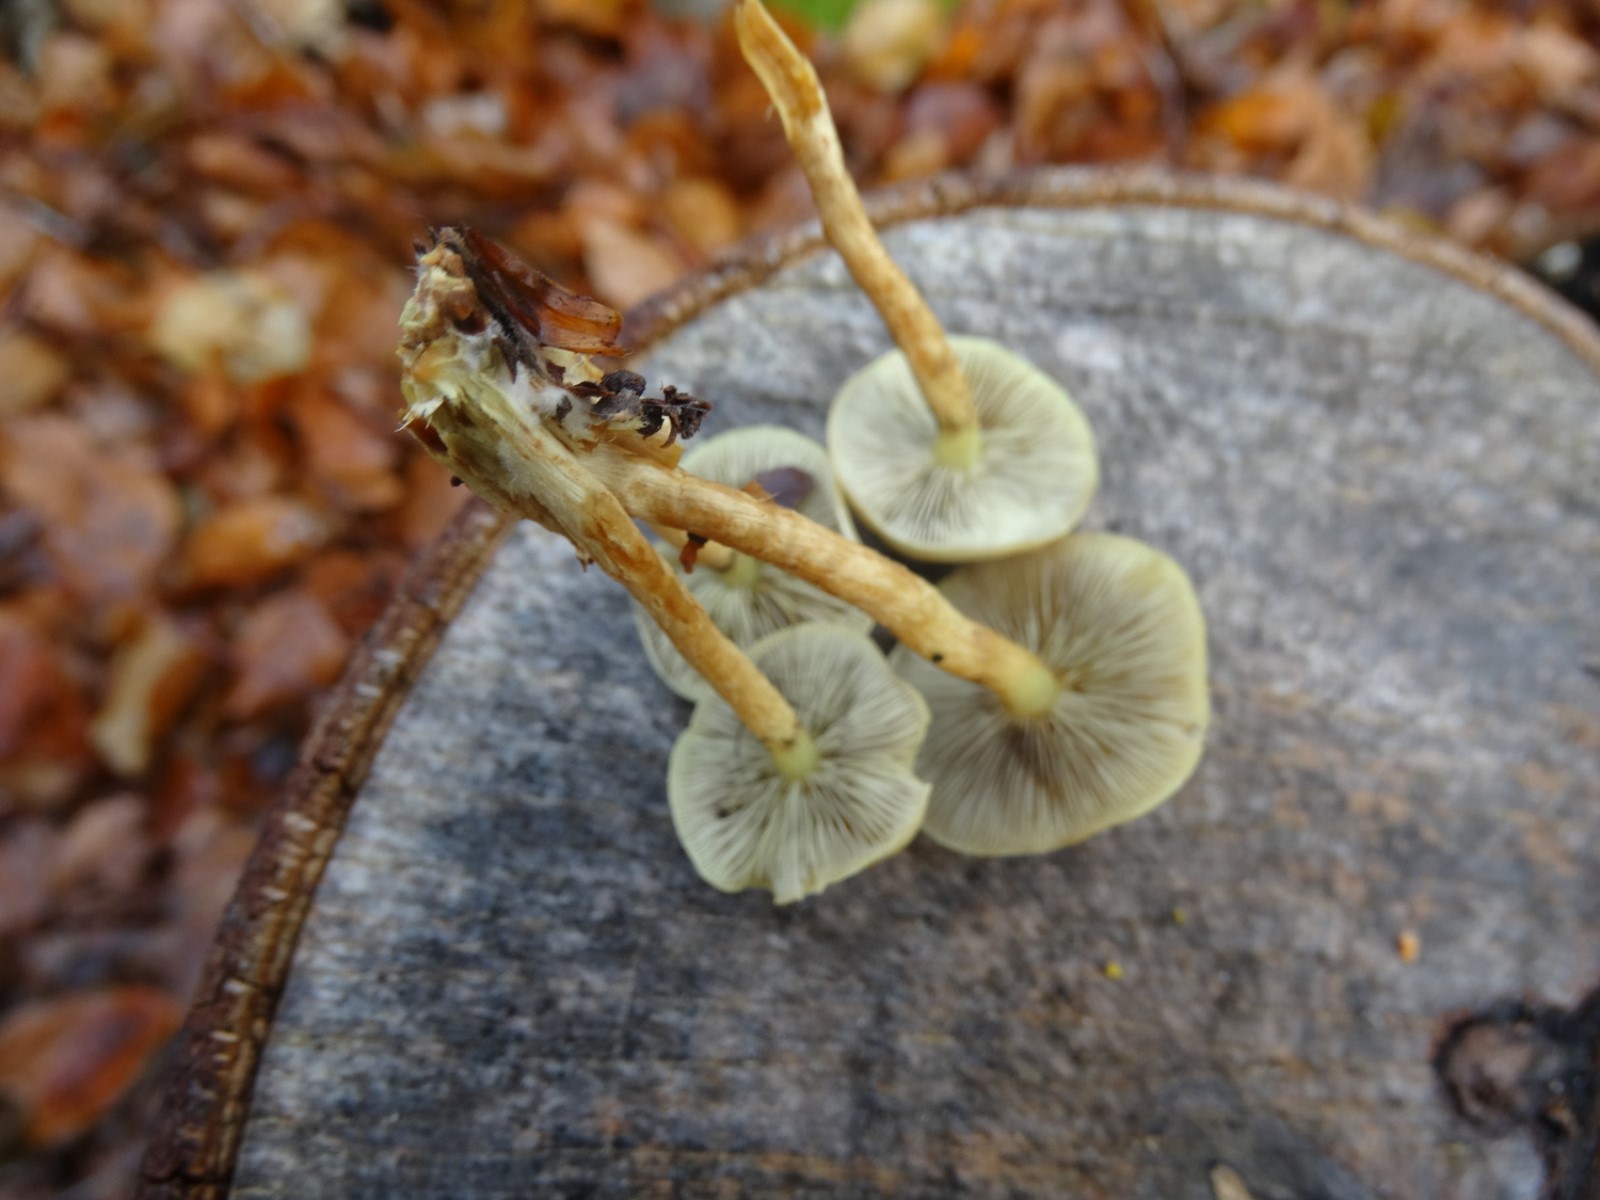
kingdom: Fungi
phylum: Basidiomycota
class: Agaricomycetes
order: Agaricales
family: Strophariaceae
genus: Hypholoma
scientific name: Hypholoma fasciculare
